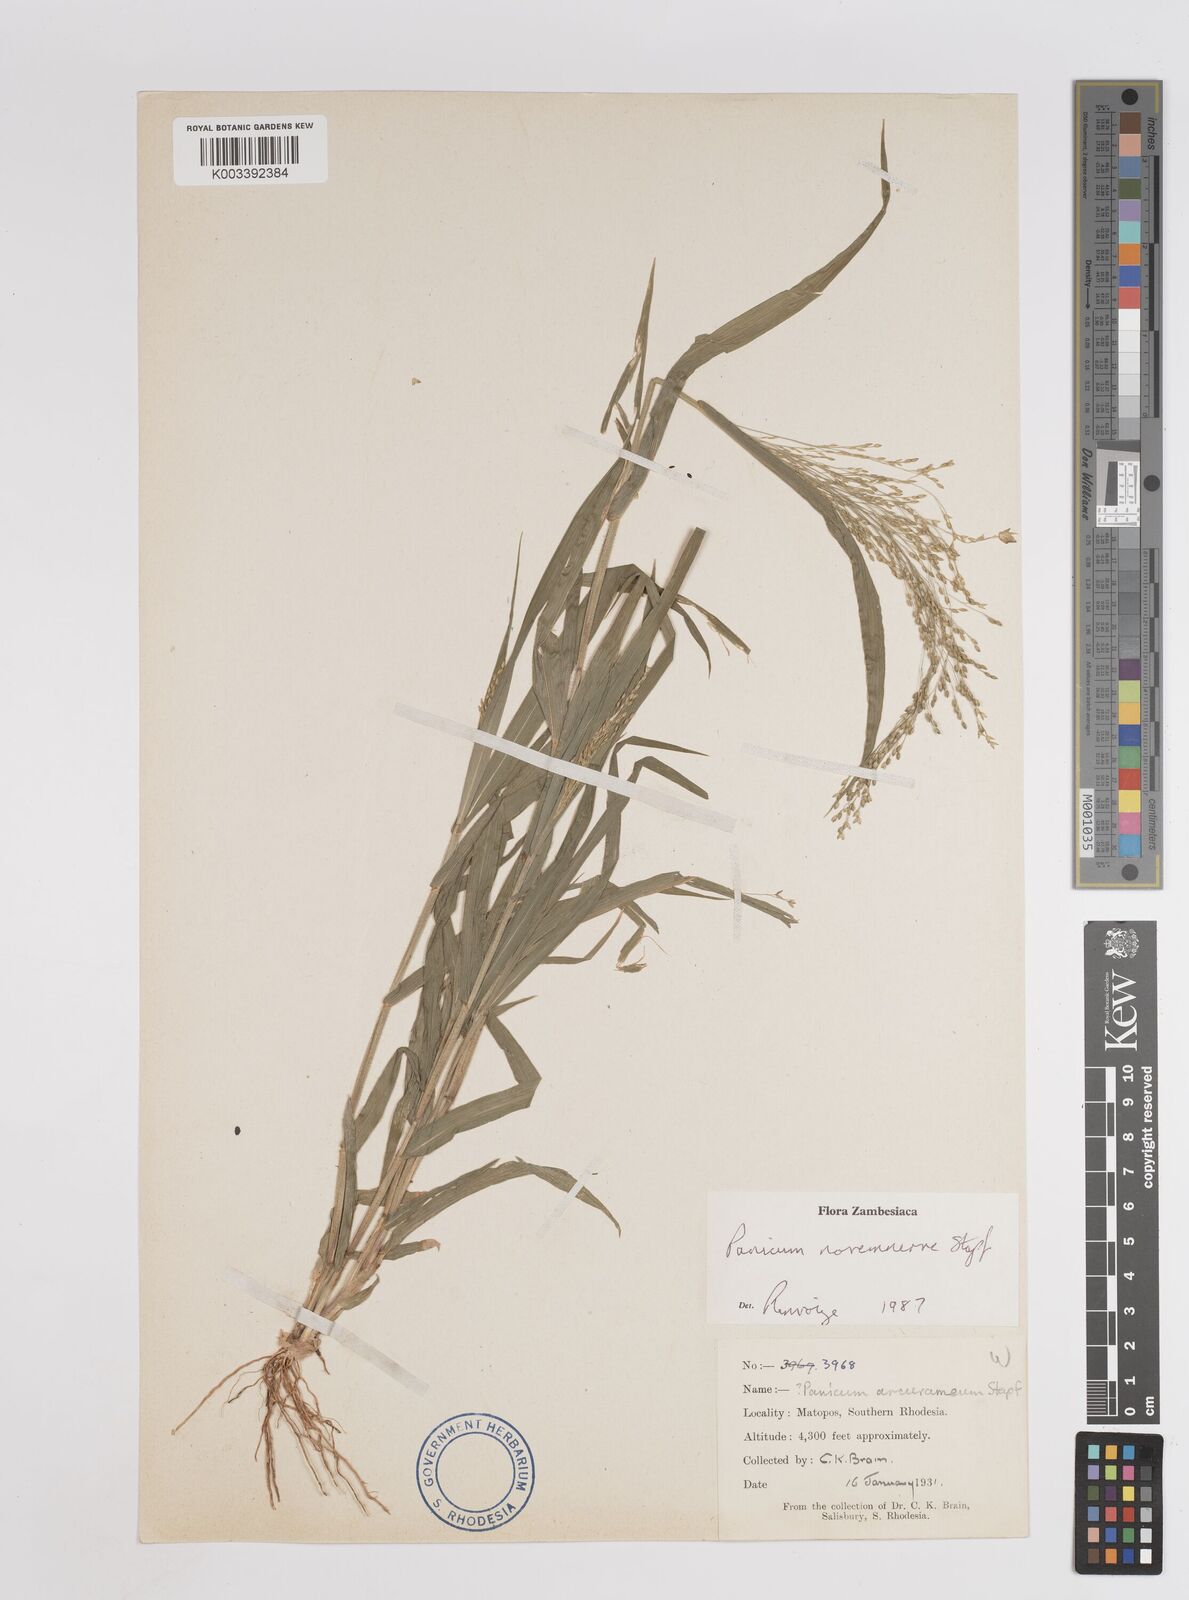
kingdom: Plantae
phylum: Tracheophyta
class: Liliopsida
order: Poales
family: Poaceae
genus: Panicum
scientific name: Panicum novemnerve
